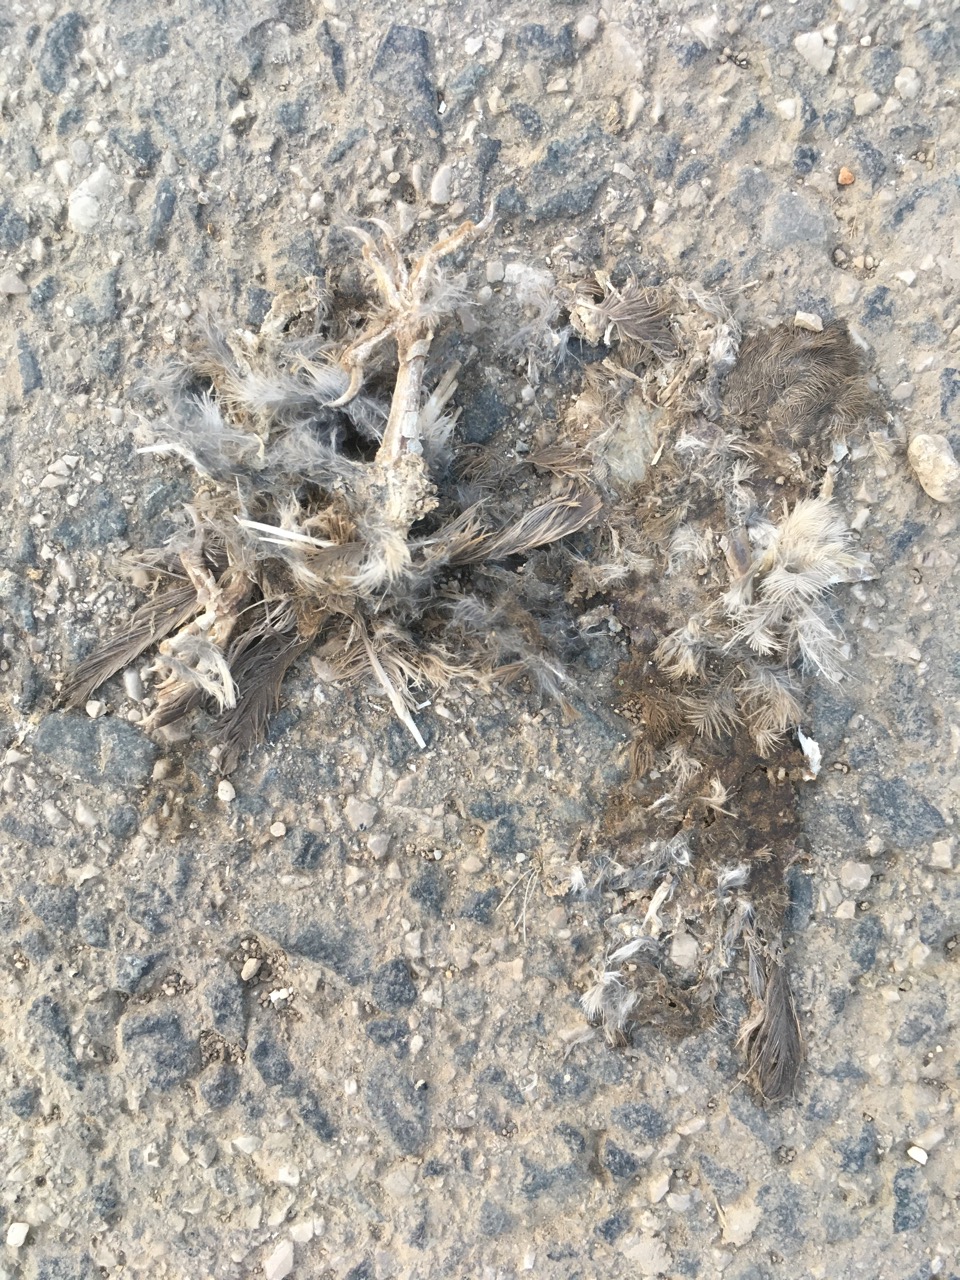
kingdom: Animalia
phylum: Chordata
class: Aves
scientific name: Aves
